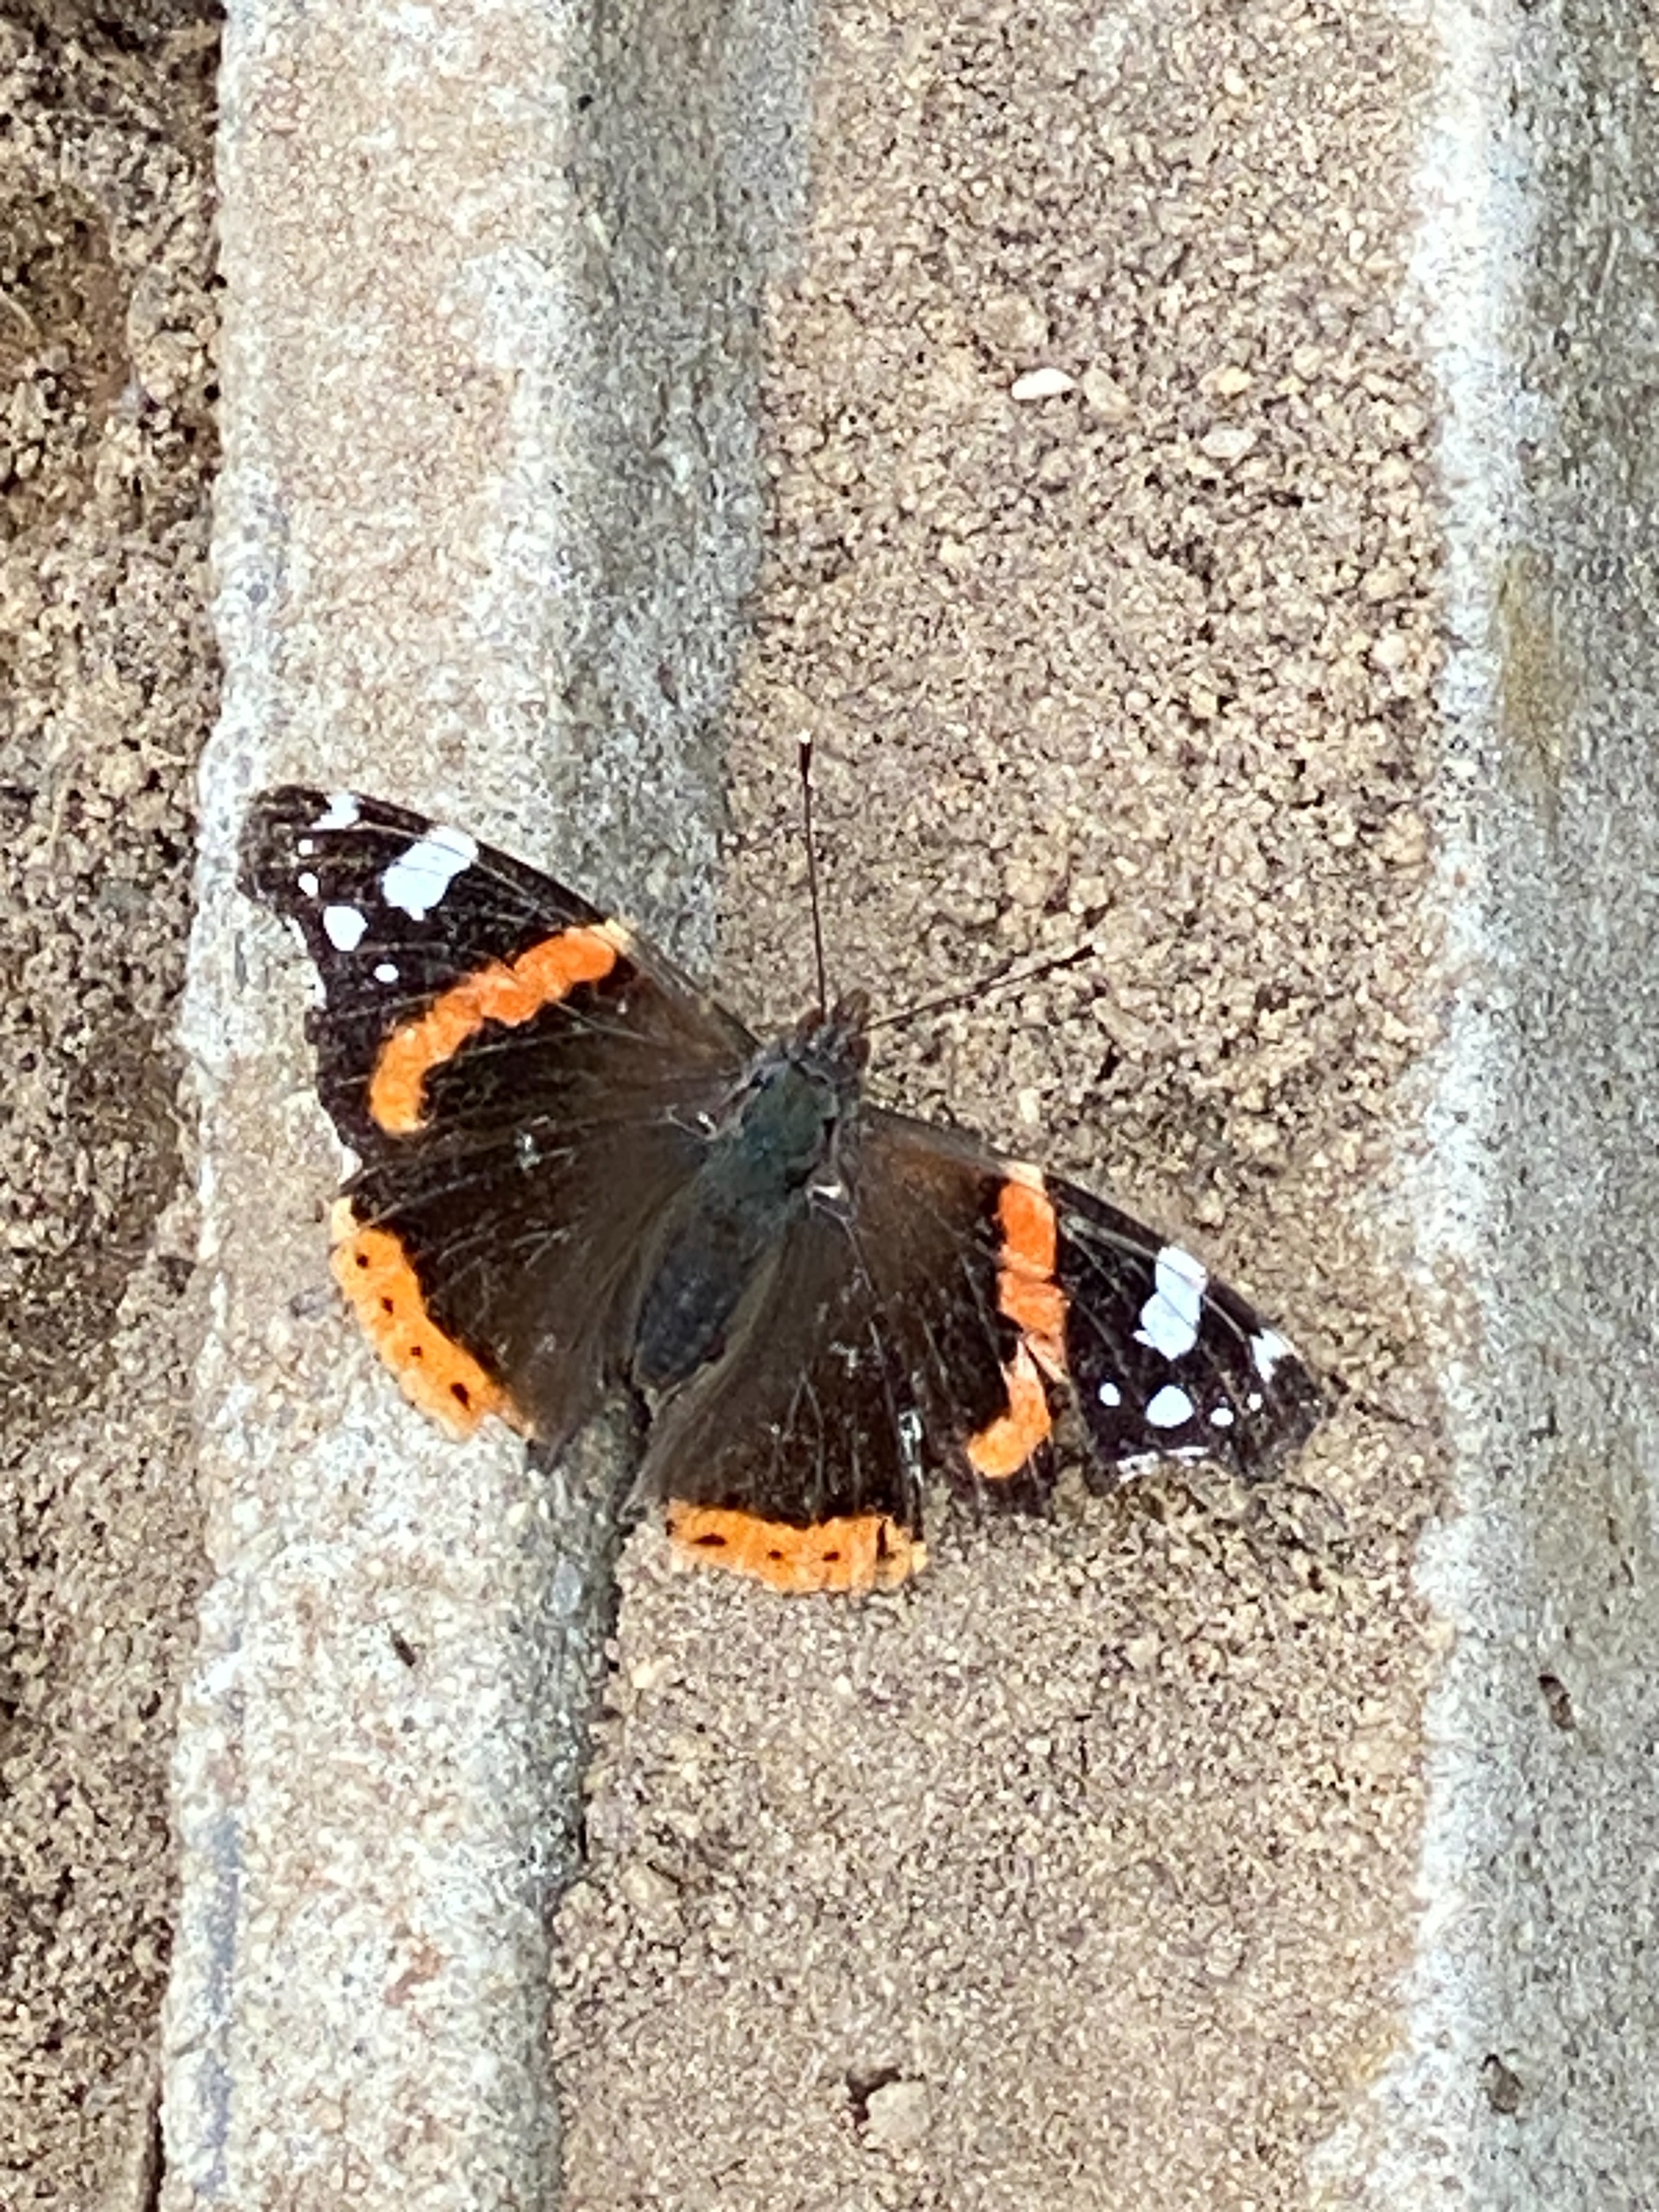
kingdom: Animalia
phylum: Arthropoda
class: Insecta
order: Lepidoptera
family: Nymphalidae
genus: Vanessa
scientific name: Vanessa atalanta
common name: Admiral
